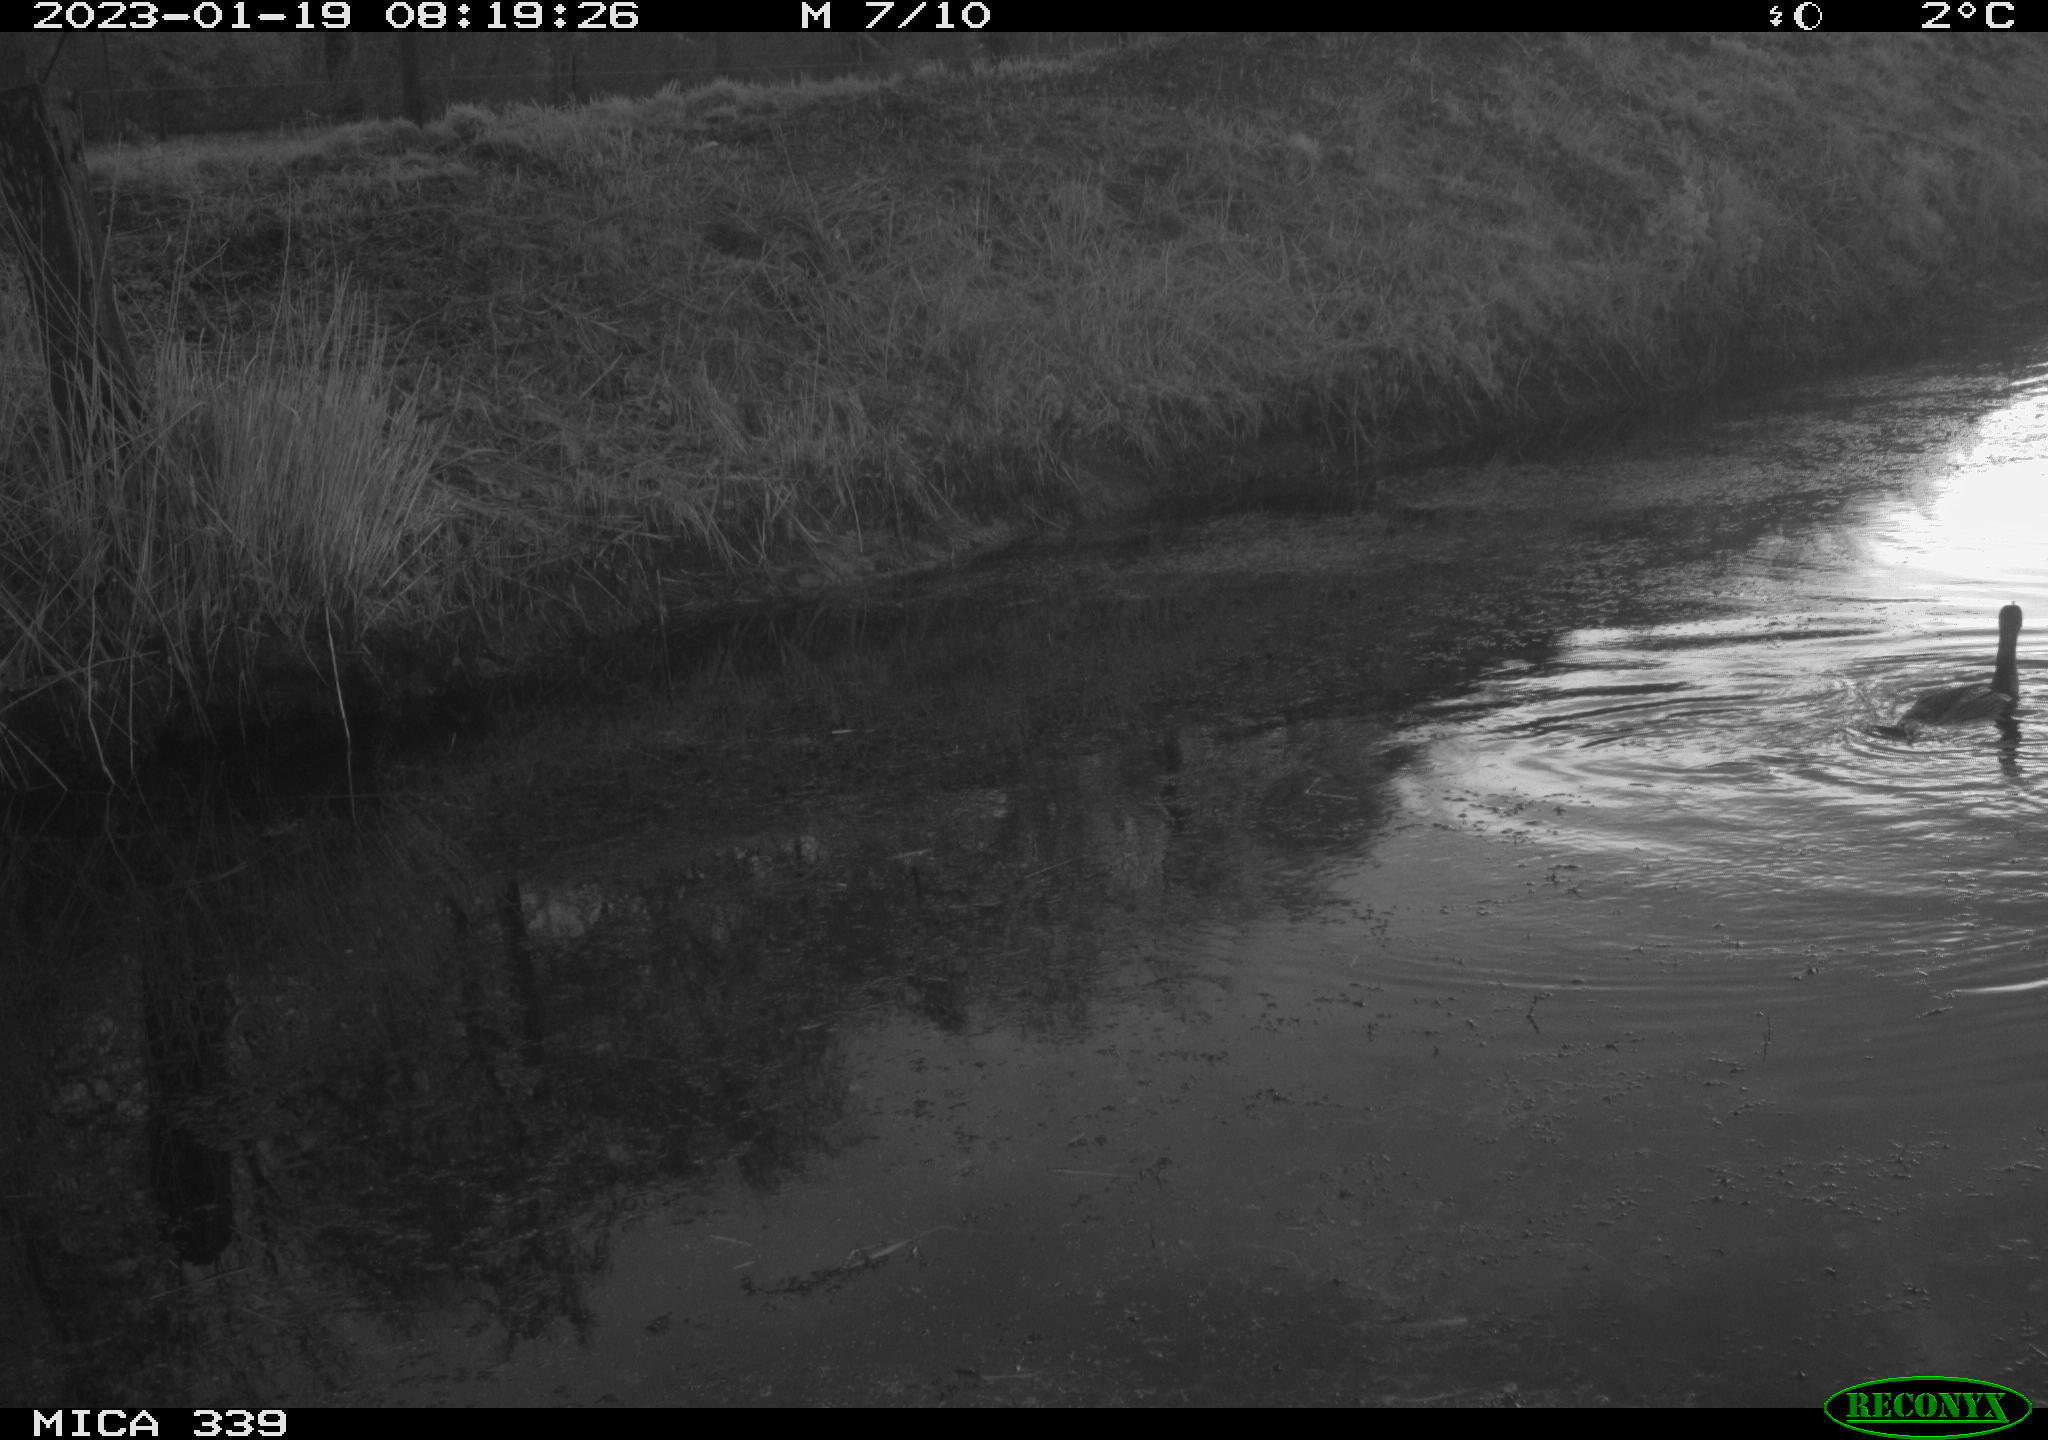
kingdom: Animalia
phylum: Chordata
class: Aves
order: Suliformes
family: Phalacrocoracidae
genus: Phalacrocorax
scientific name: Phalacrocorax carbo
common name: Great cormorant
